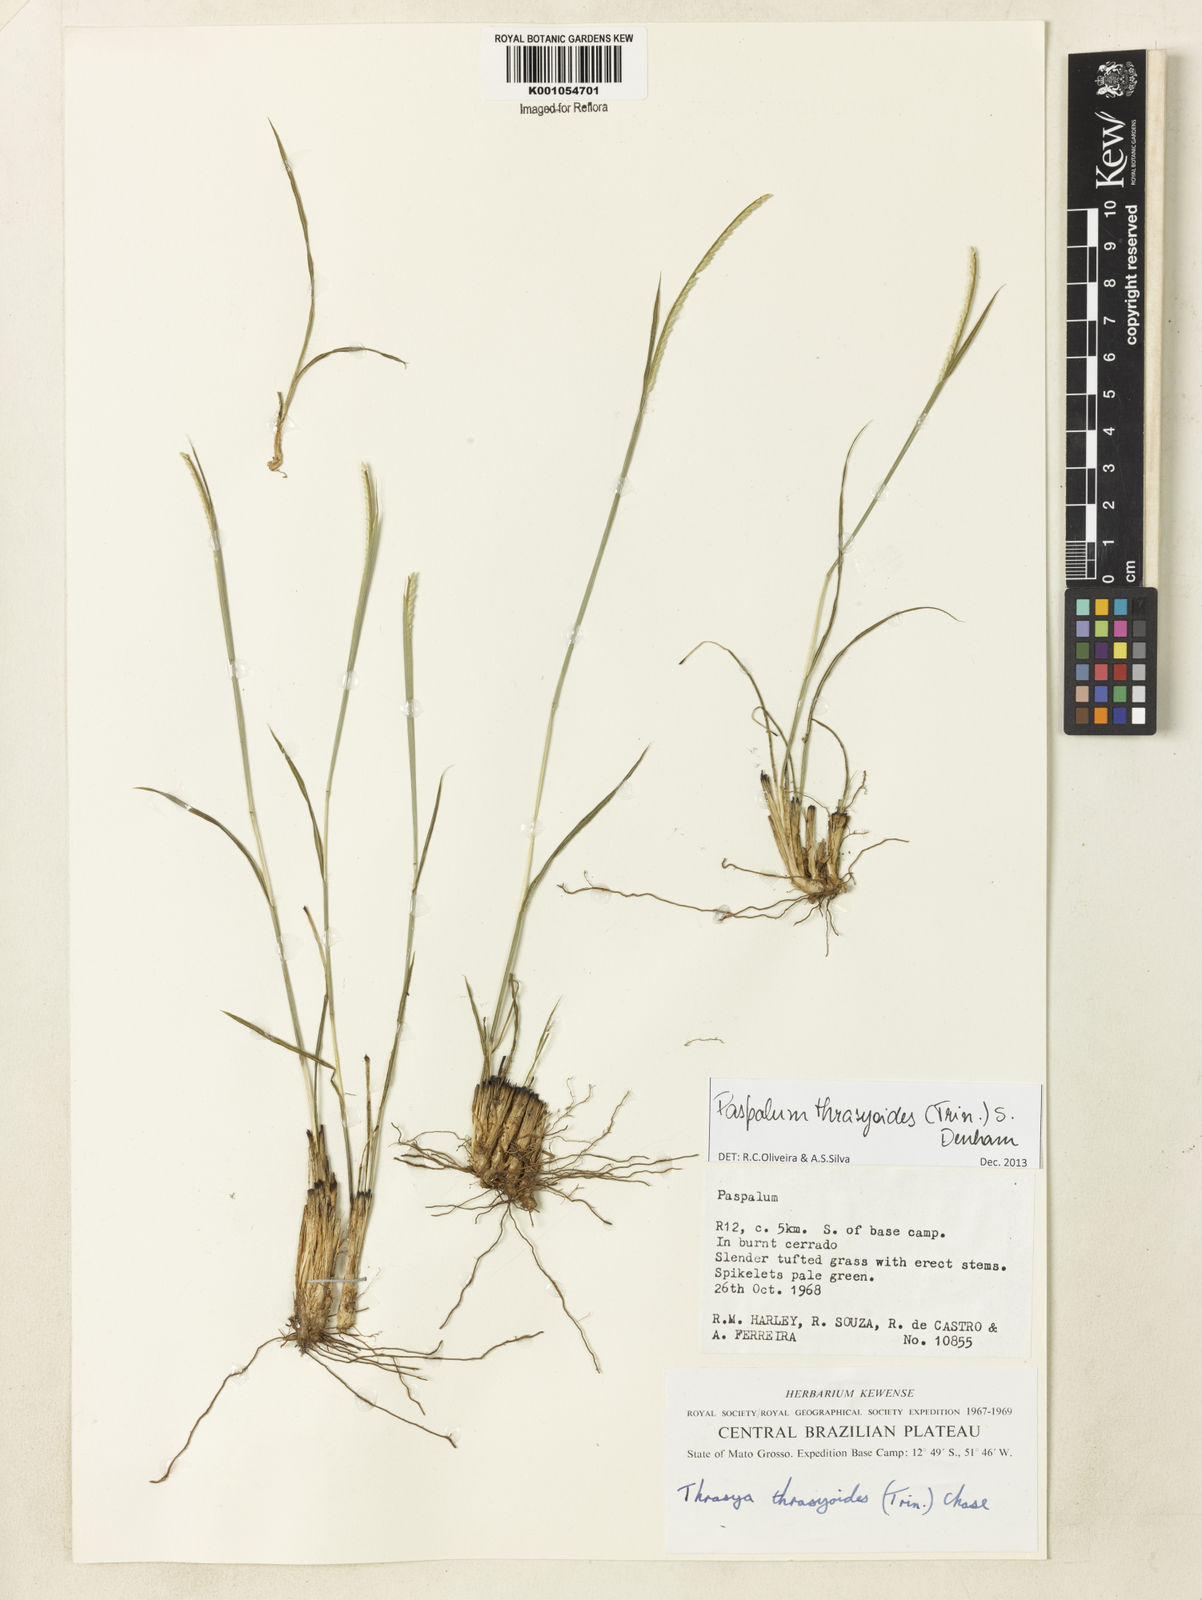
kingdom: Plantae
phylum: Tracheophyta
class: Liliopsida
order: Poales
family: Poaceae
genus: Paspalum
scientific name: Paspalum thrasyoides
